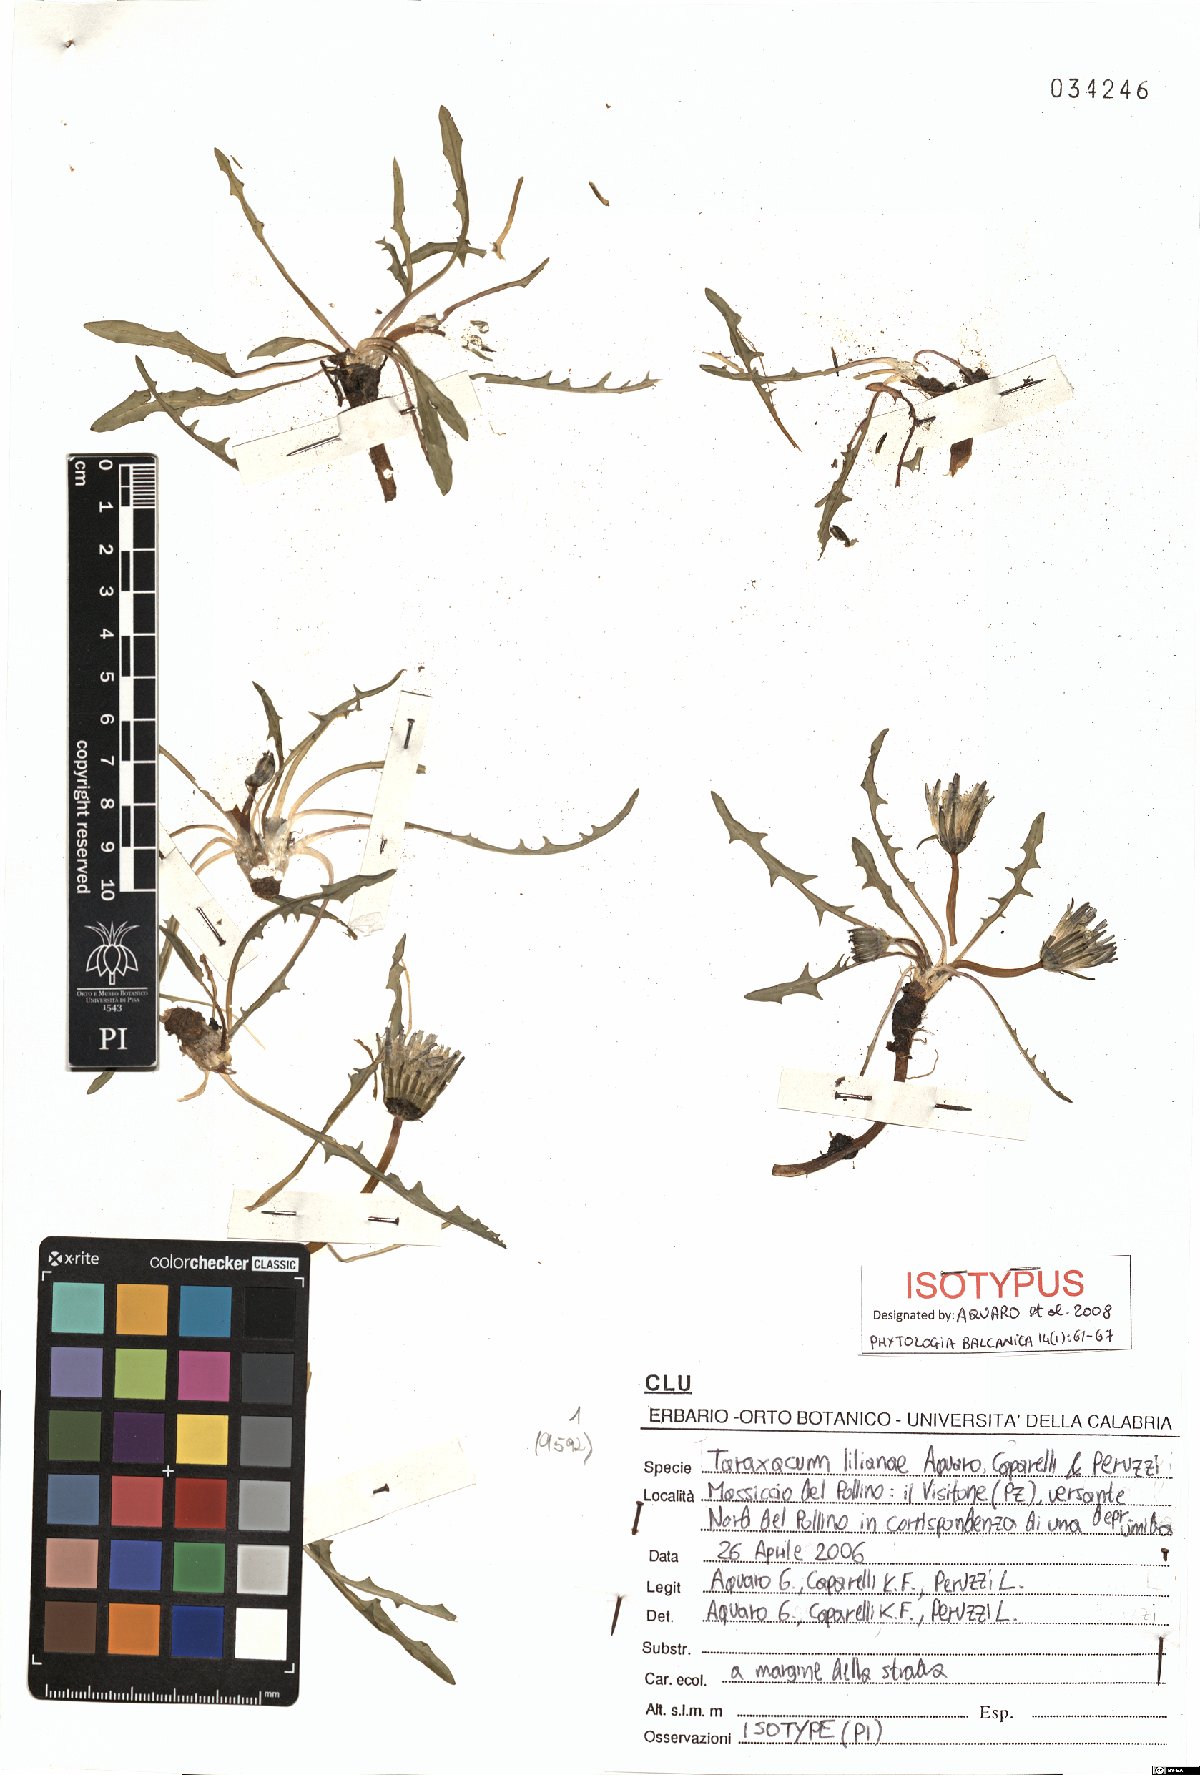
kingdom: Plantae
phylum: Tracheophyta
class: Magnoliopsida
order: Asterales
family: Asteraceae
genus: Taraxacum
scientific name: Taraxacum lilianae
